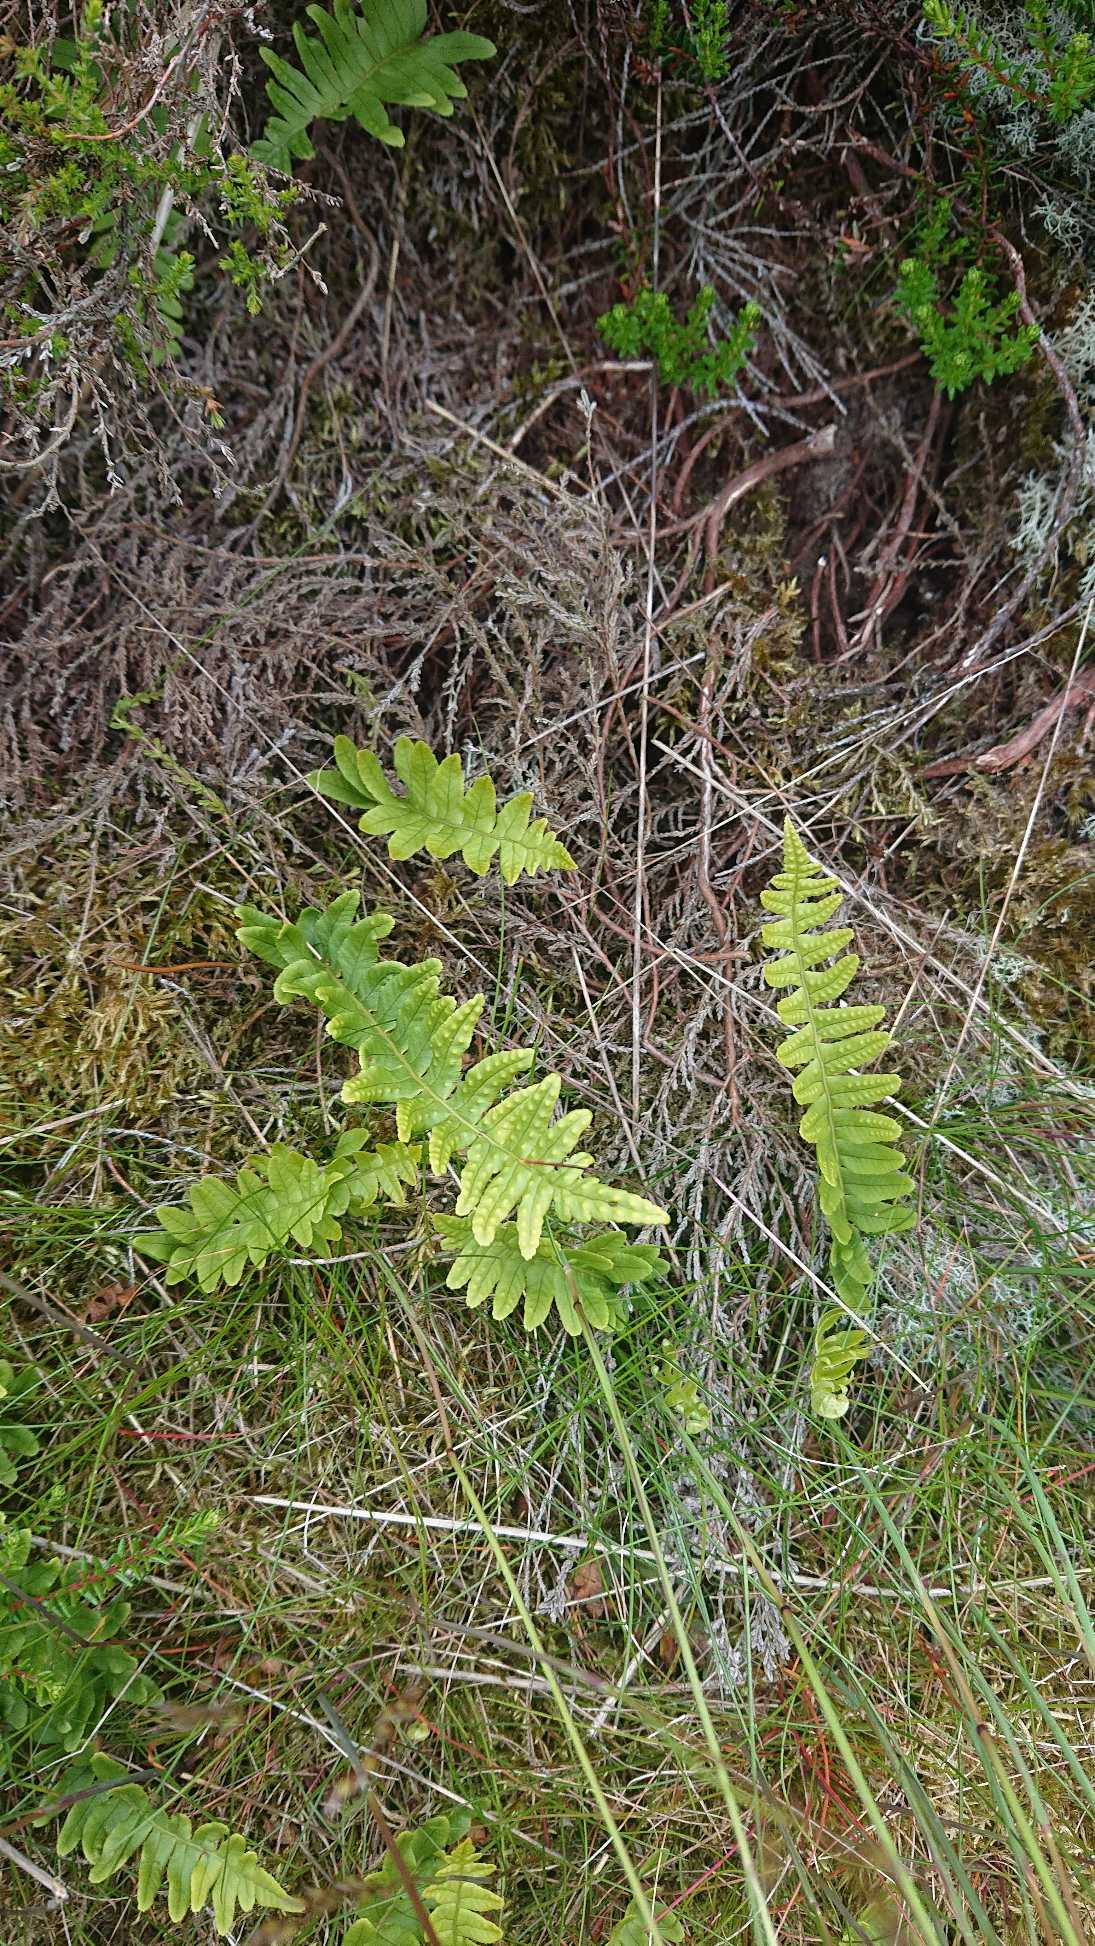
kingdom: Plantae
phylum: Tracheophyta
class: Polypodiopsida
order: Polypodiales
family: Polypodiaceae
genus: Polypodium
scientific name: Polypodium vulgare
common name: Almindelig engelsød
